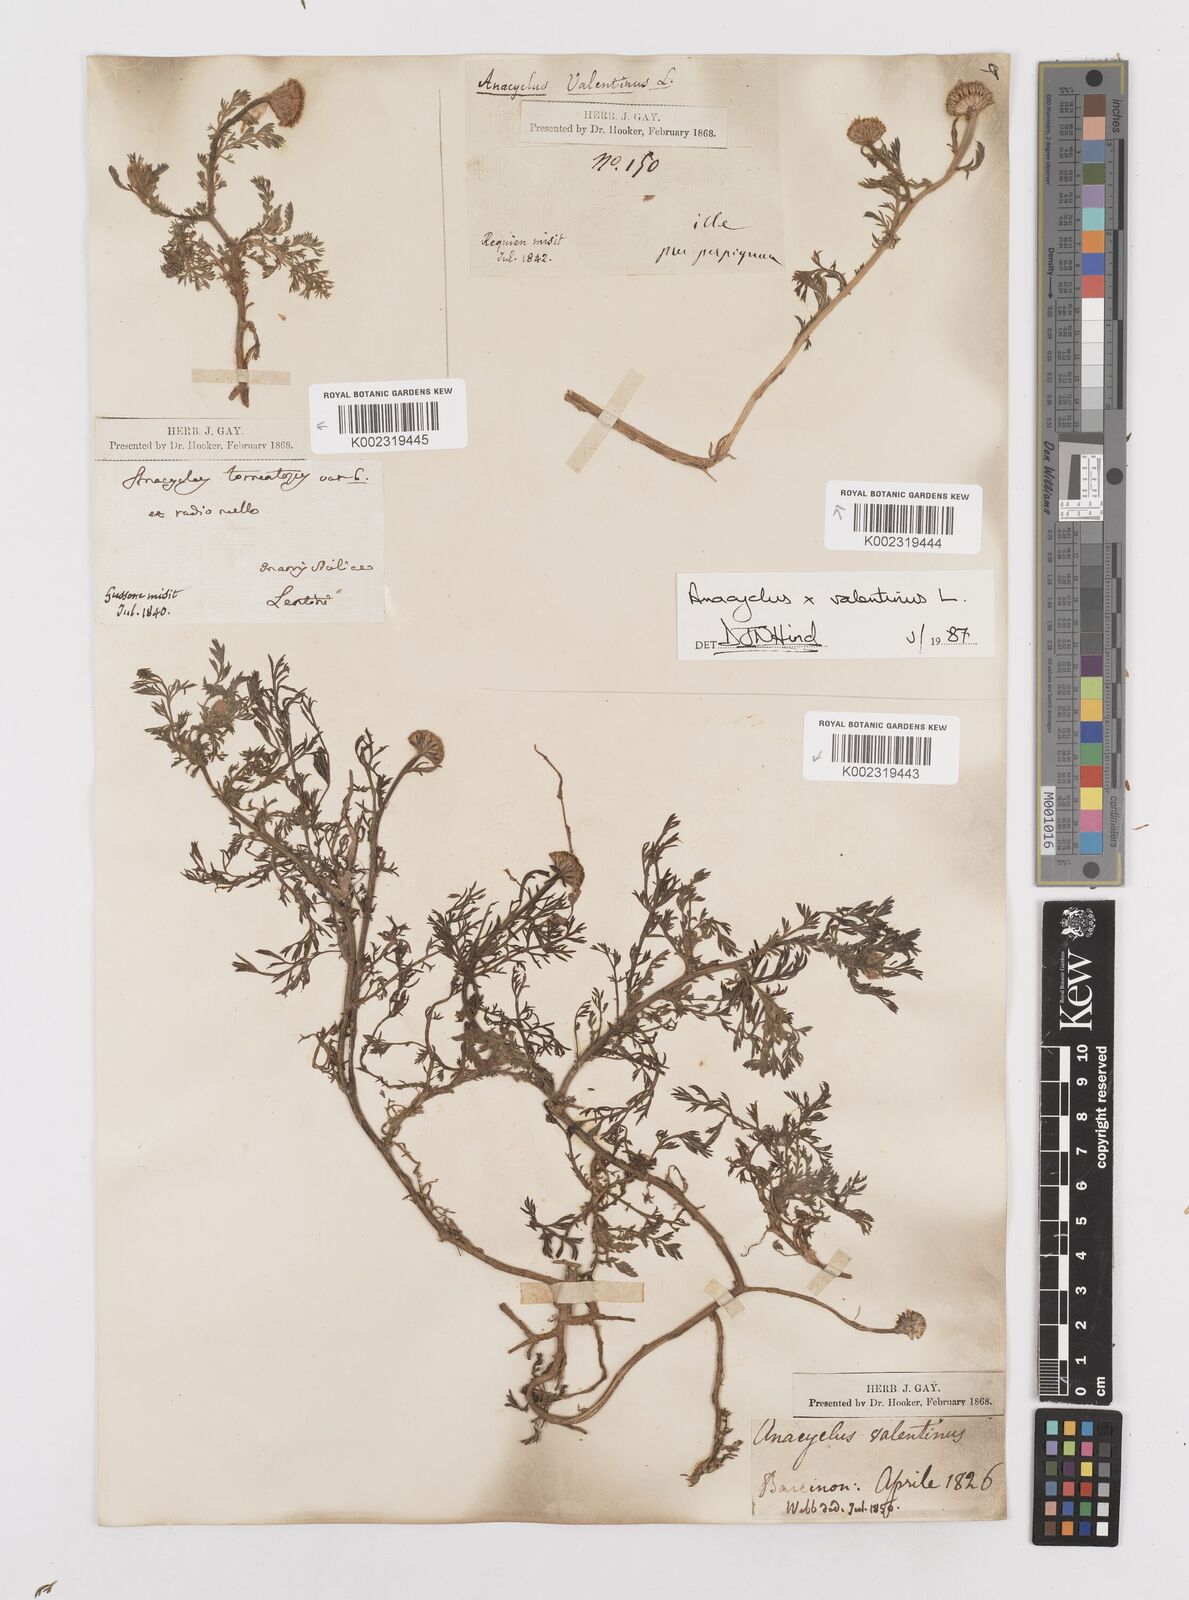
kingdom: Plantae
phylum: Tracheophyta
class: Magnoliopsida
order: Asterales
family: Asteraceae
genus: Anacyclus
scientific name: Anacyclus valentinus
